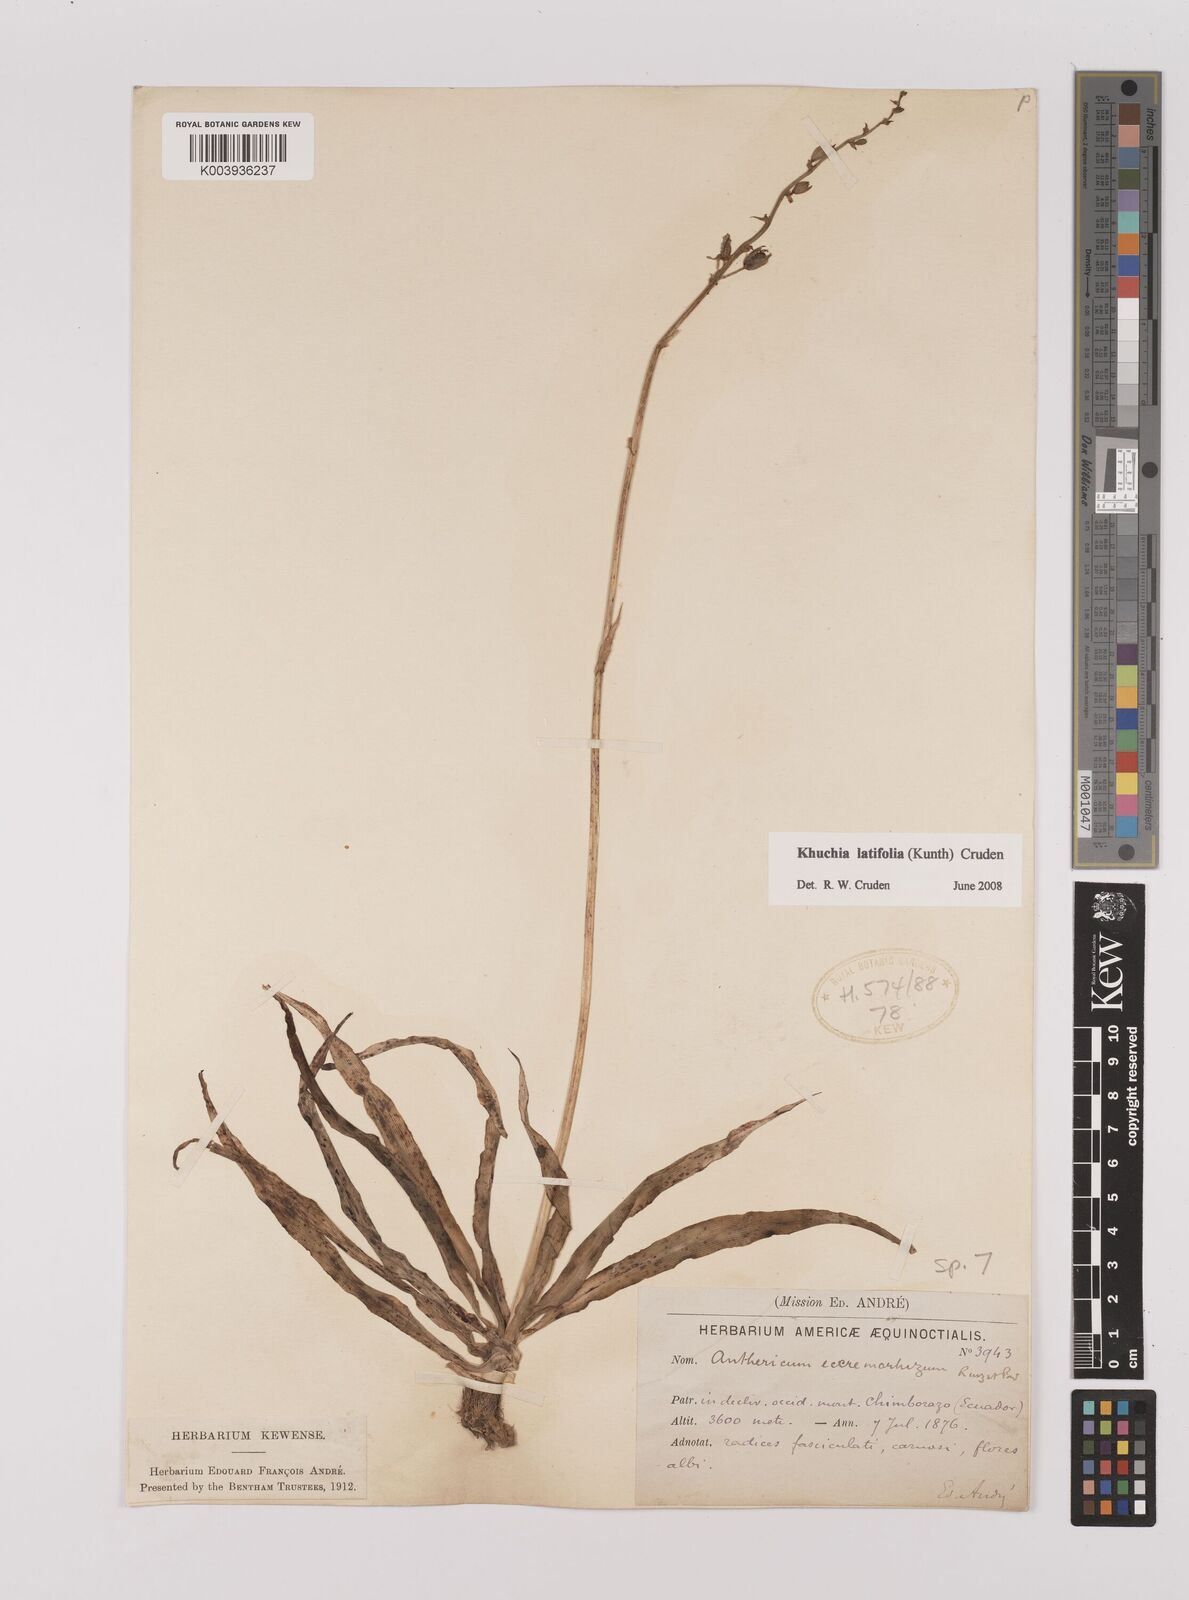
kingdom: Plantae
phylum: Tracheophyta
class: Liliopsida
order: Asparagales
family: Asparagaceae
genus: Echeandia
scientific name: Echeandia
